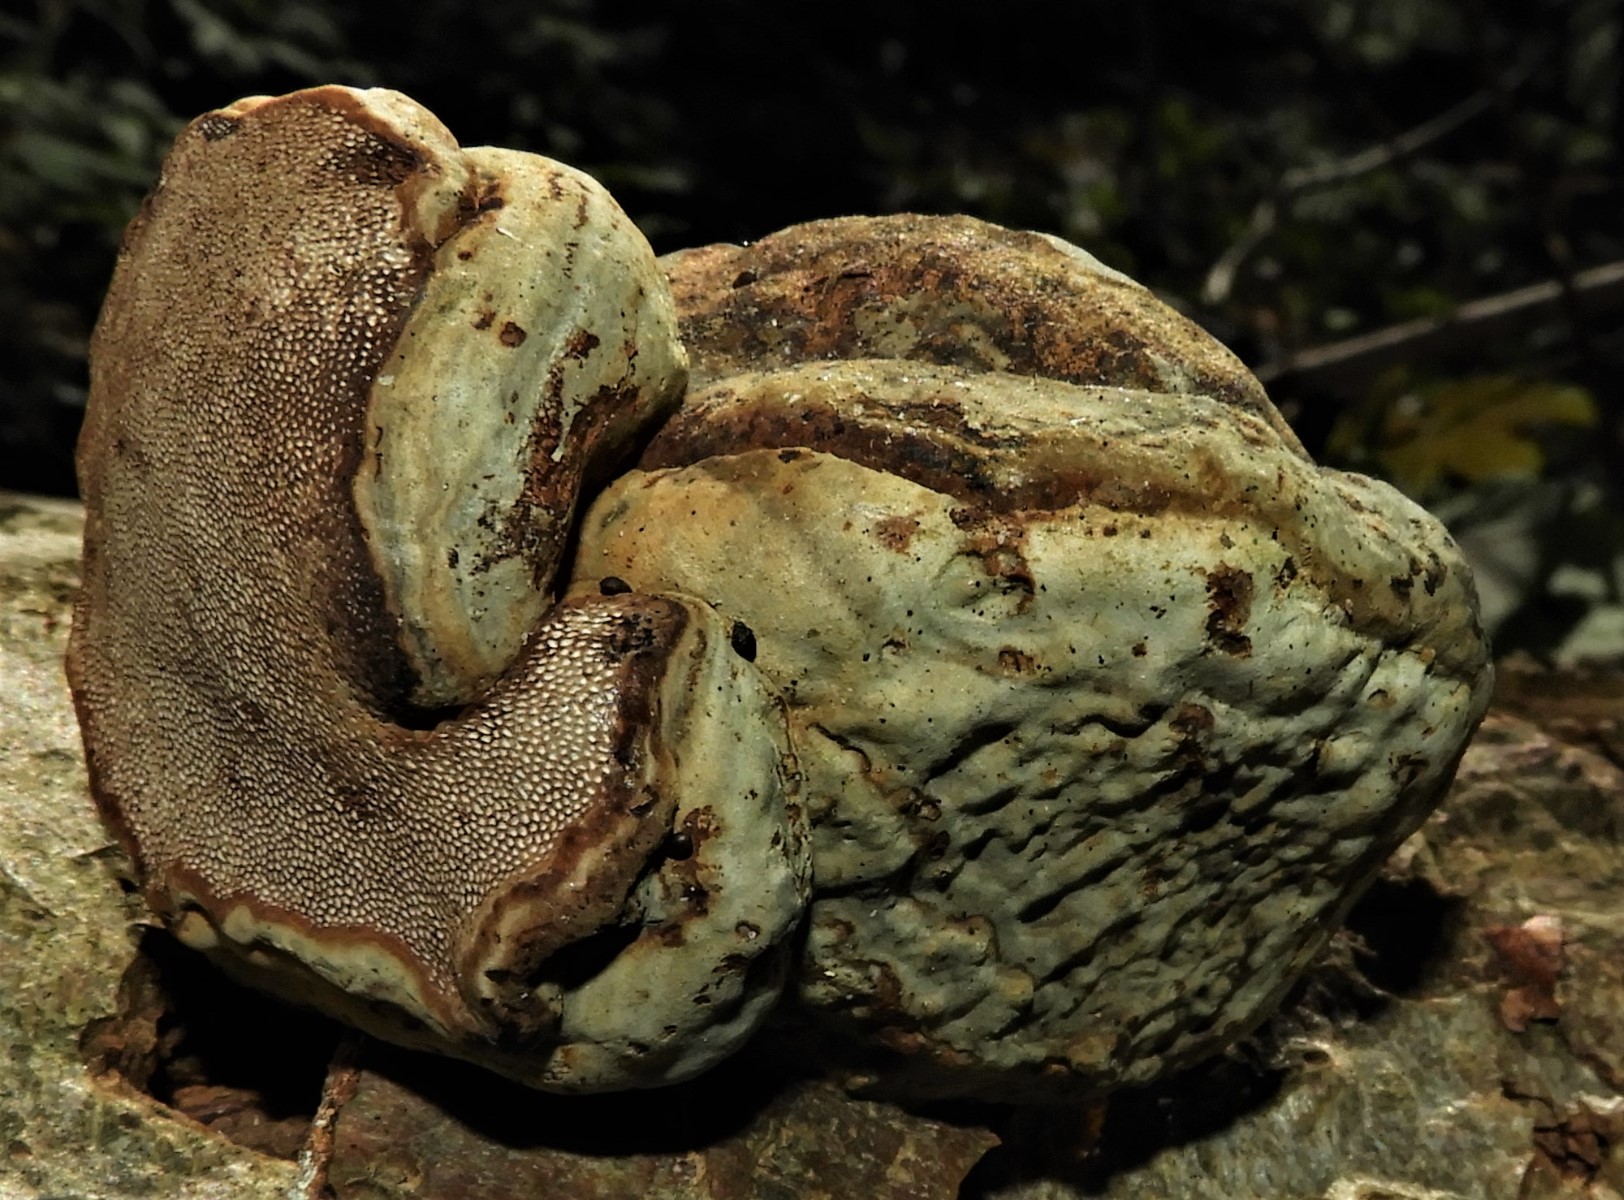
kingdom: Fungi
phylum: Basidiomycota
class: Agaricomycetes
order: Polyporales
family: Polyporaceae
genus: Fomes
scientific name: Fomes fomentarius
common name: tøndersvamp
